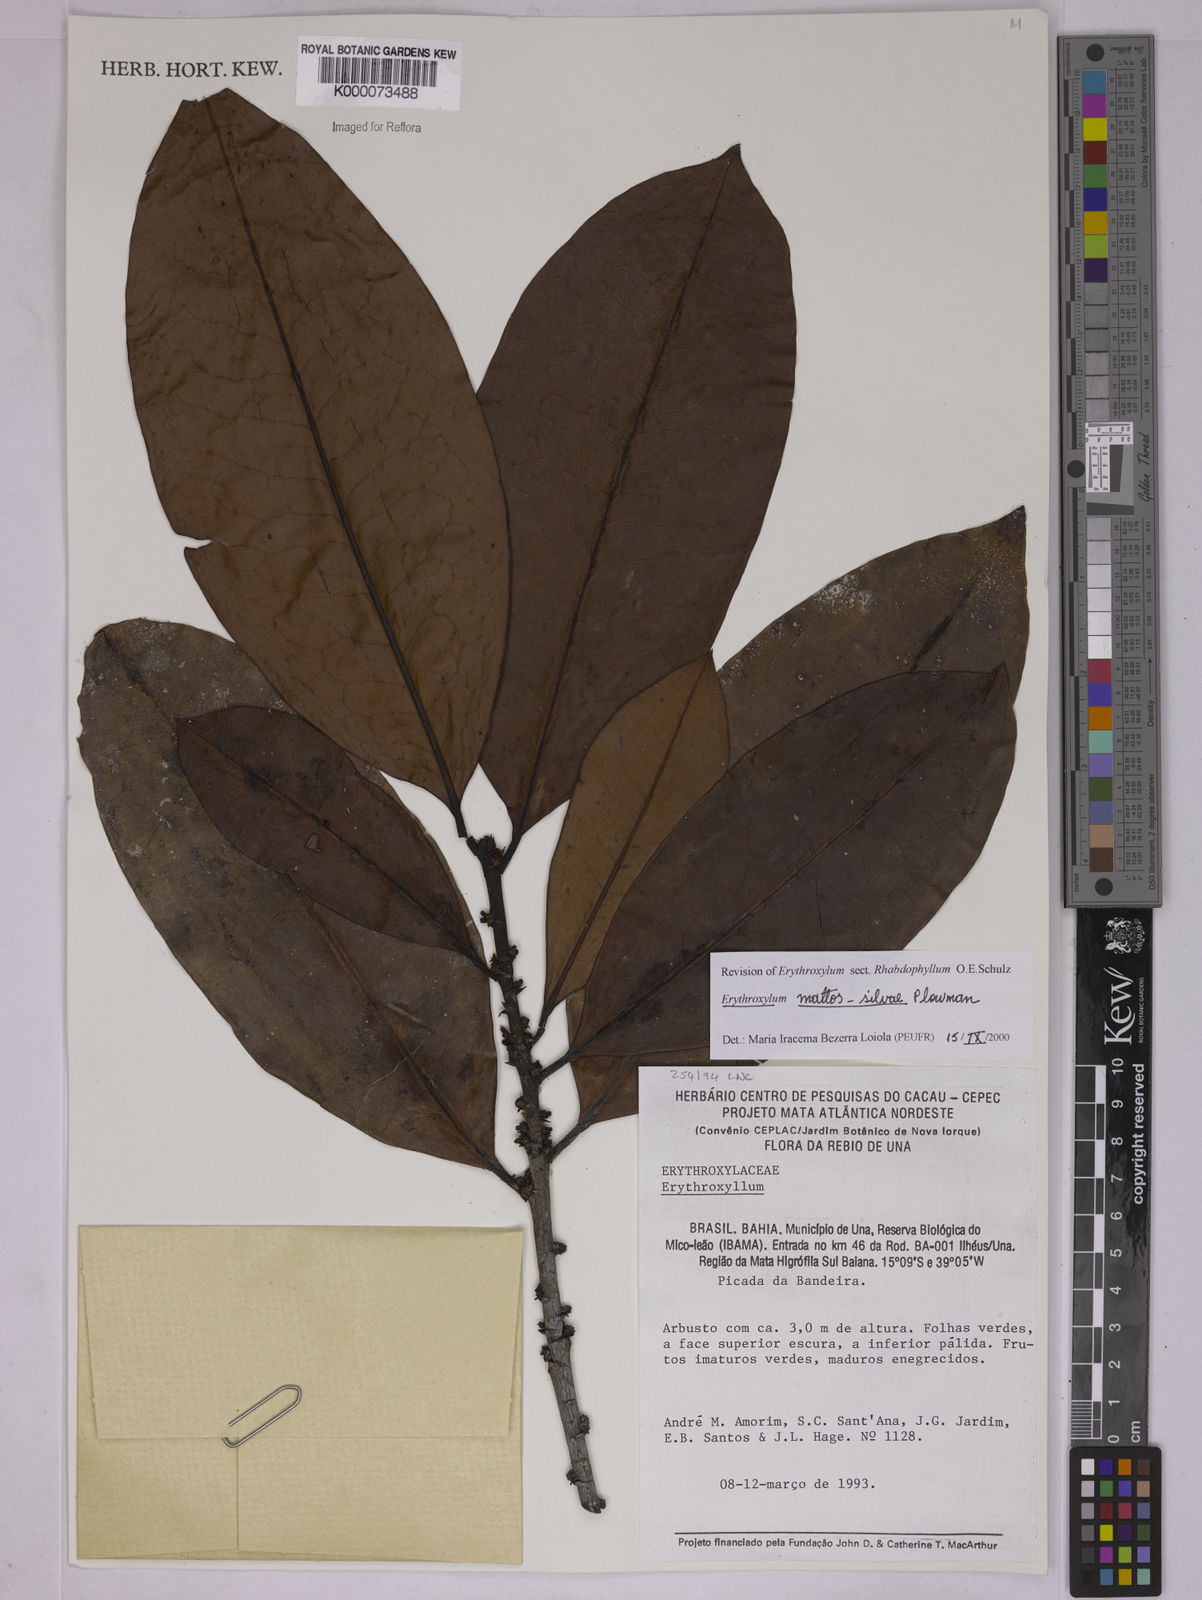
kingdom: Plantae
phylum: Tracheophyta
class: Magnoliopsida
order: Malpighiales
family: Erythroxylaceae
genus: Erythroxylum
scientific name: Erythroxylum mattos-silvae
